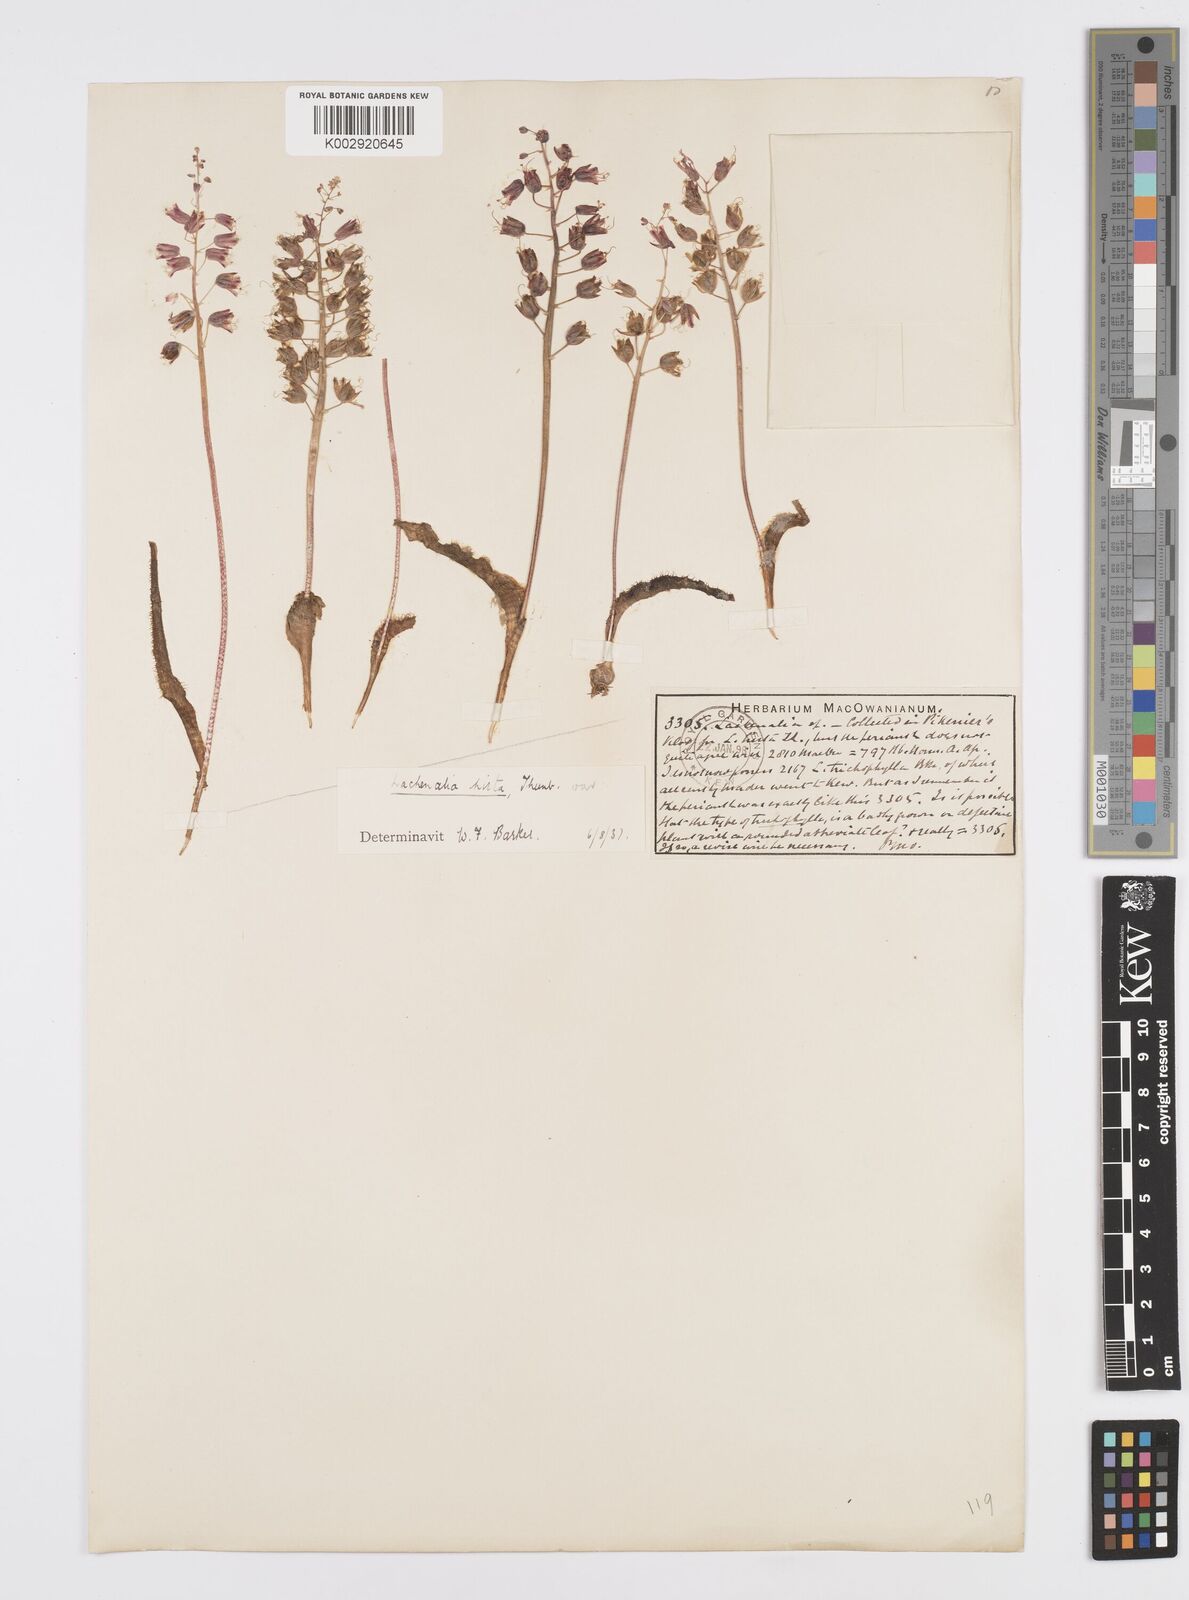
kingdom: Plantae
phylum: Tracheophyta
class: Liliopsida
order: Asparagales
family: Asparagaceae
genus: Lachenalia
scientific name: Lachenalia hirta
